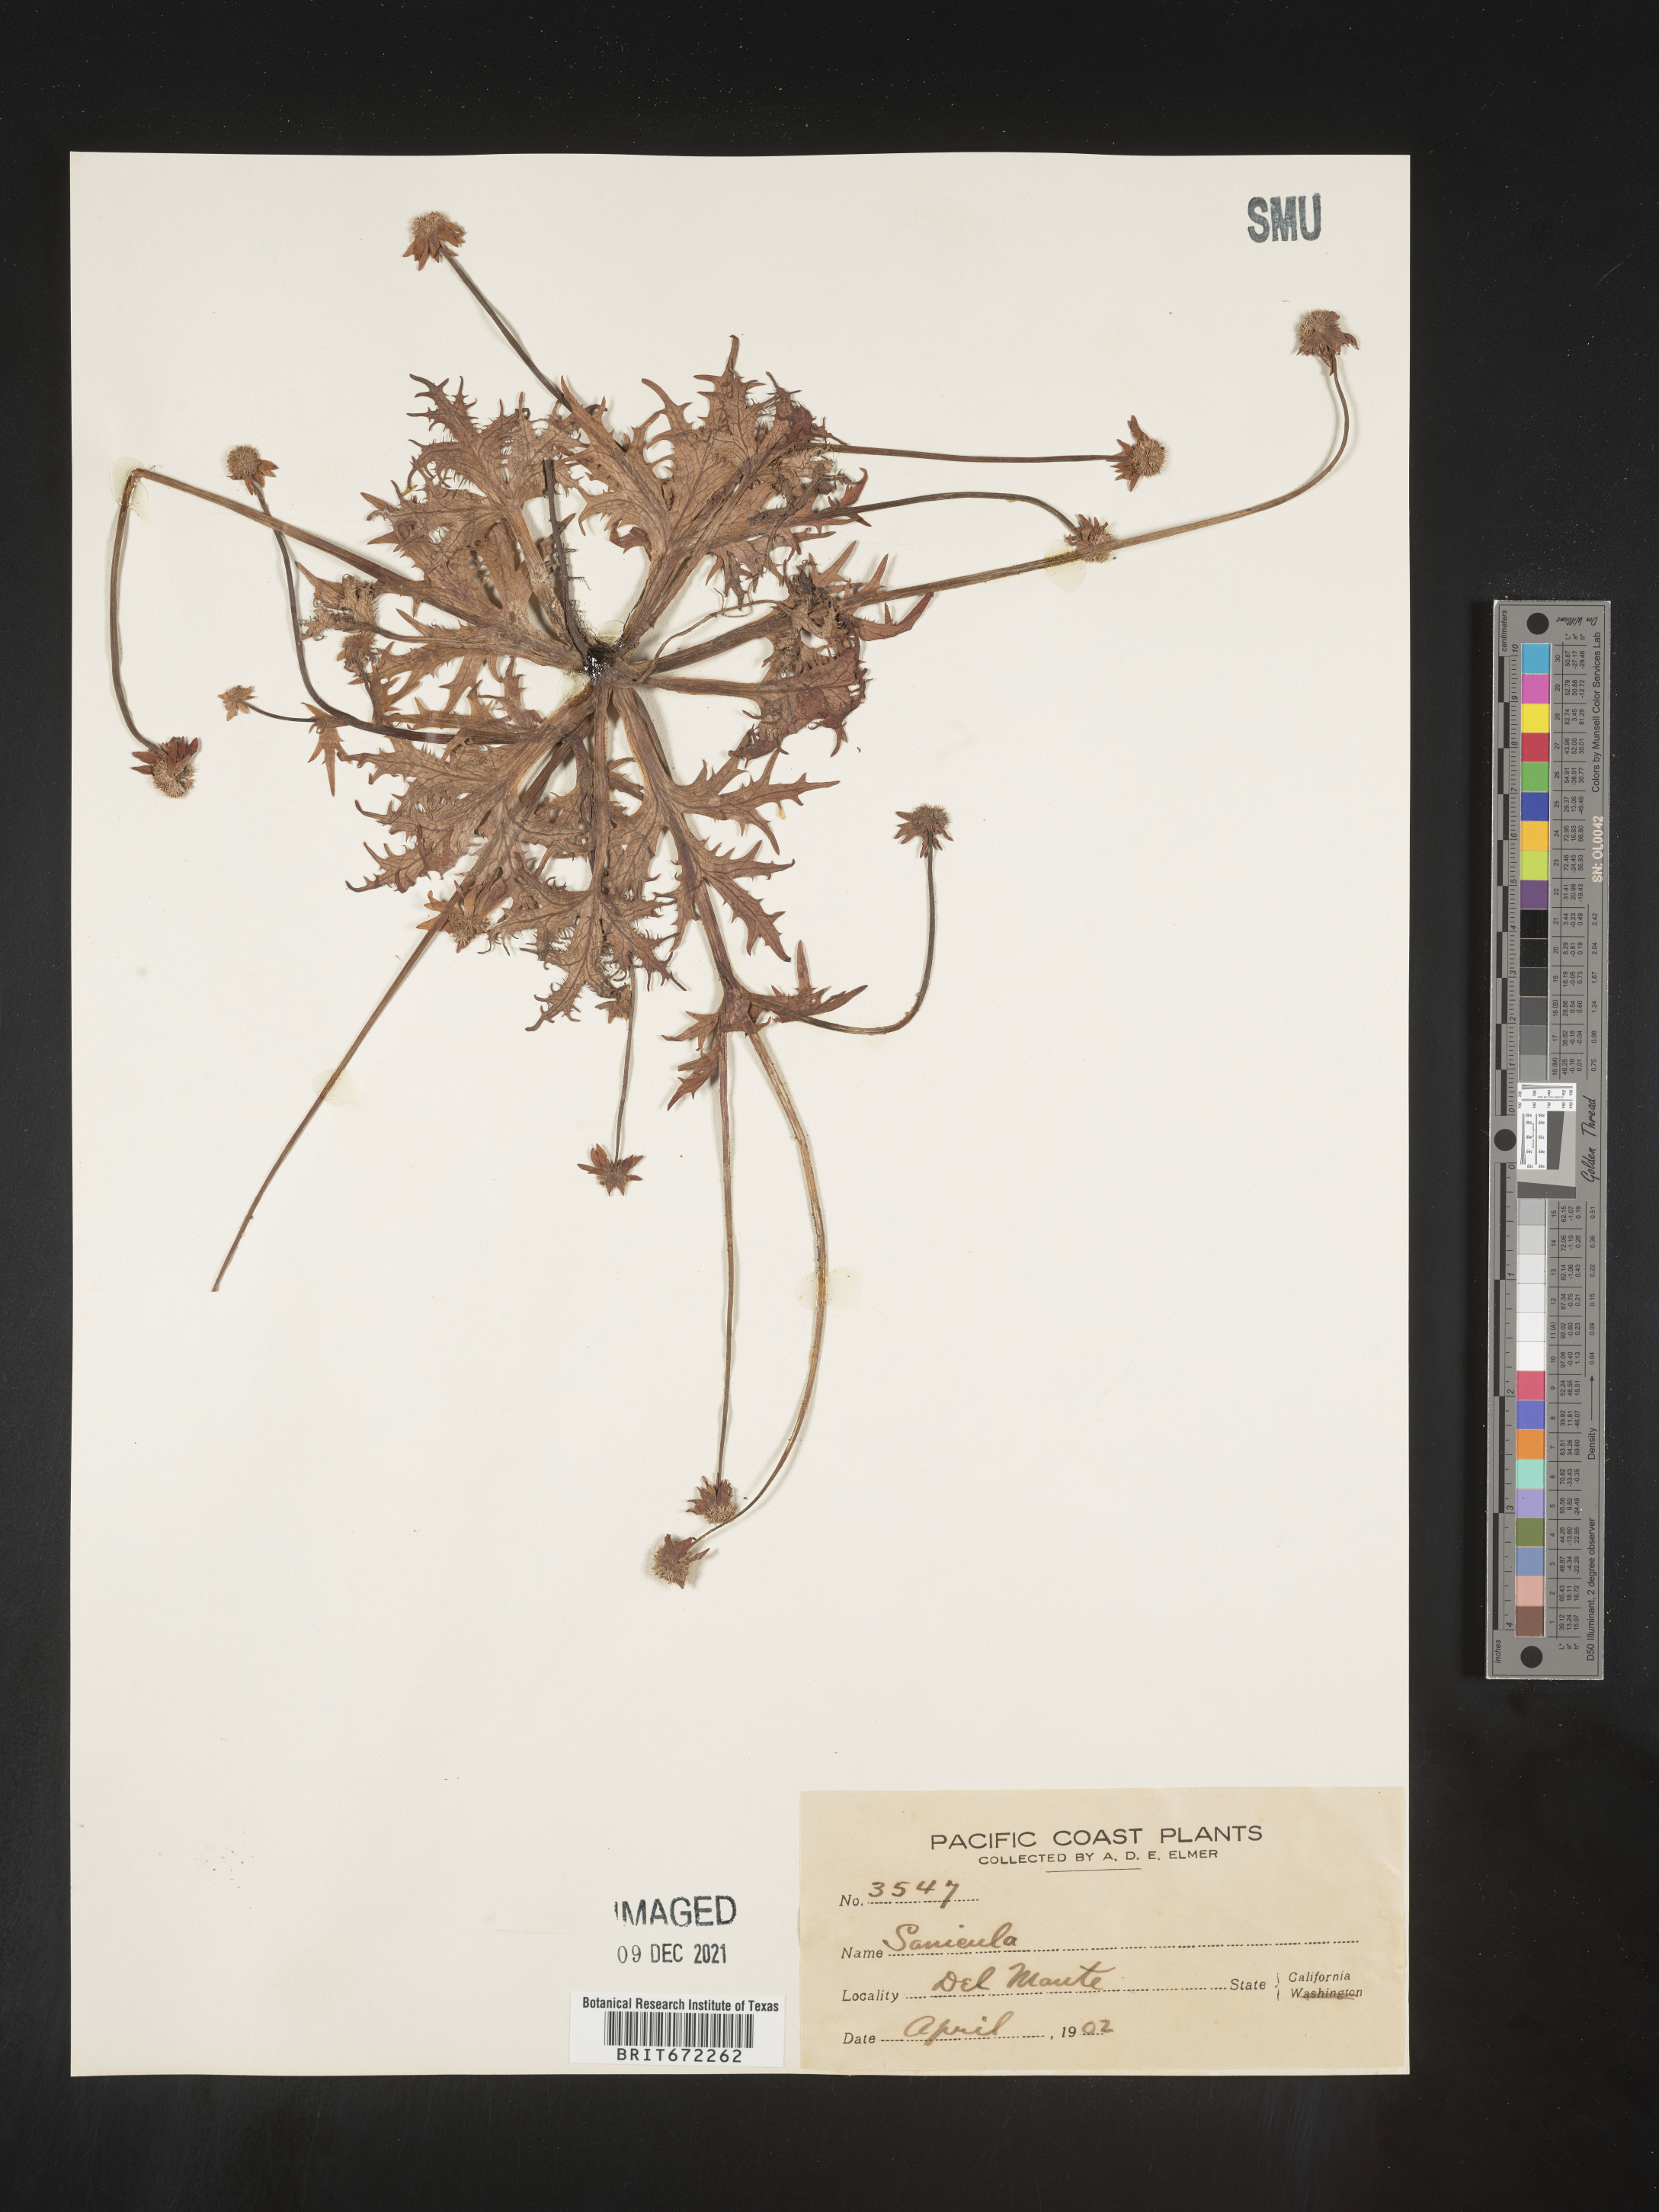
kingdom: Plantae
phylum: Tracheophyta
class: Magnoliopsida
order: Apiales
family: Apiaceae
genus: Sanicula
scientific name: Sanicula
